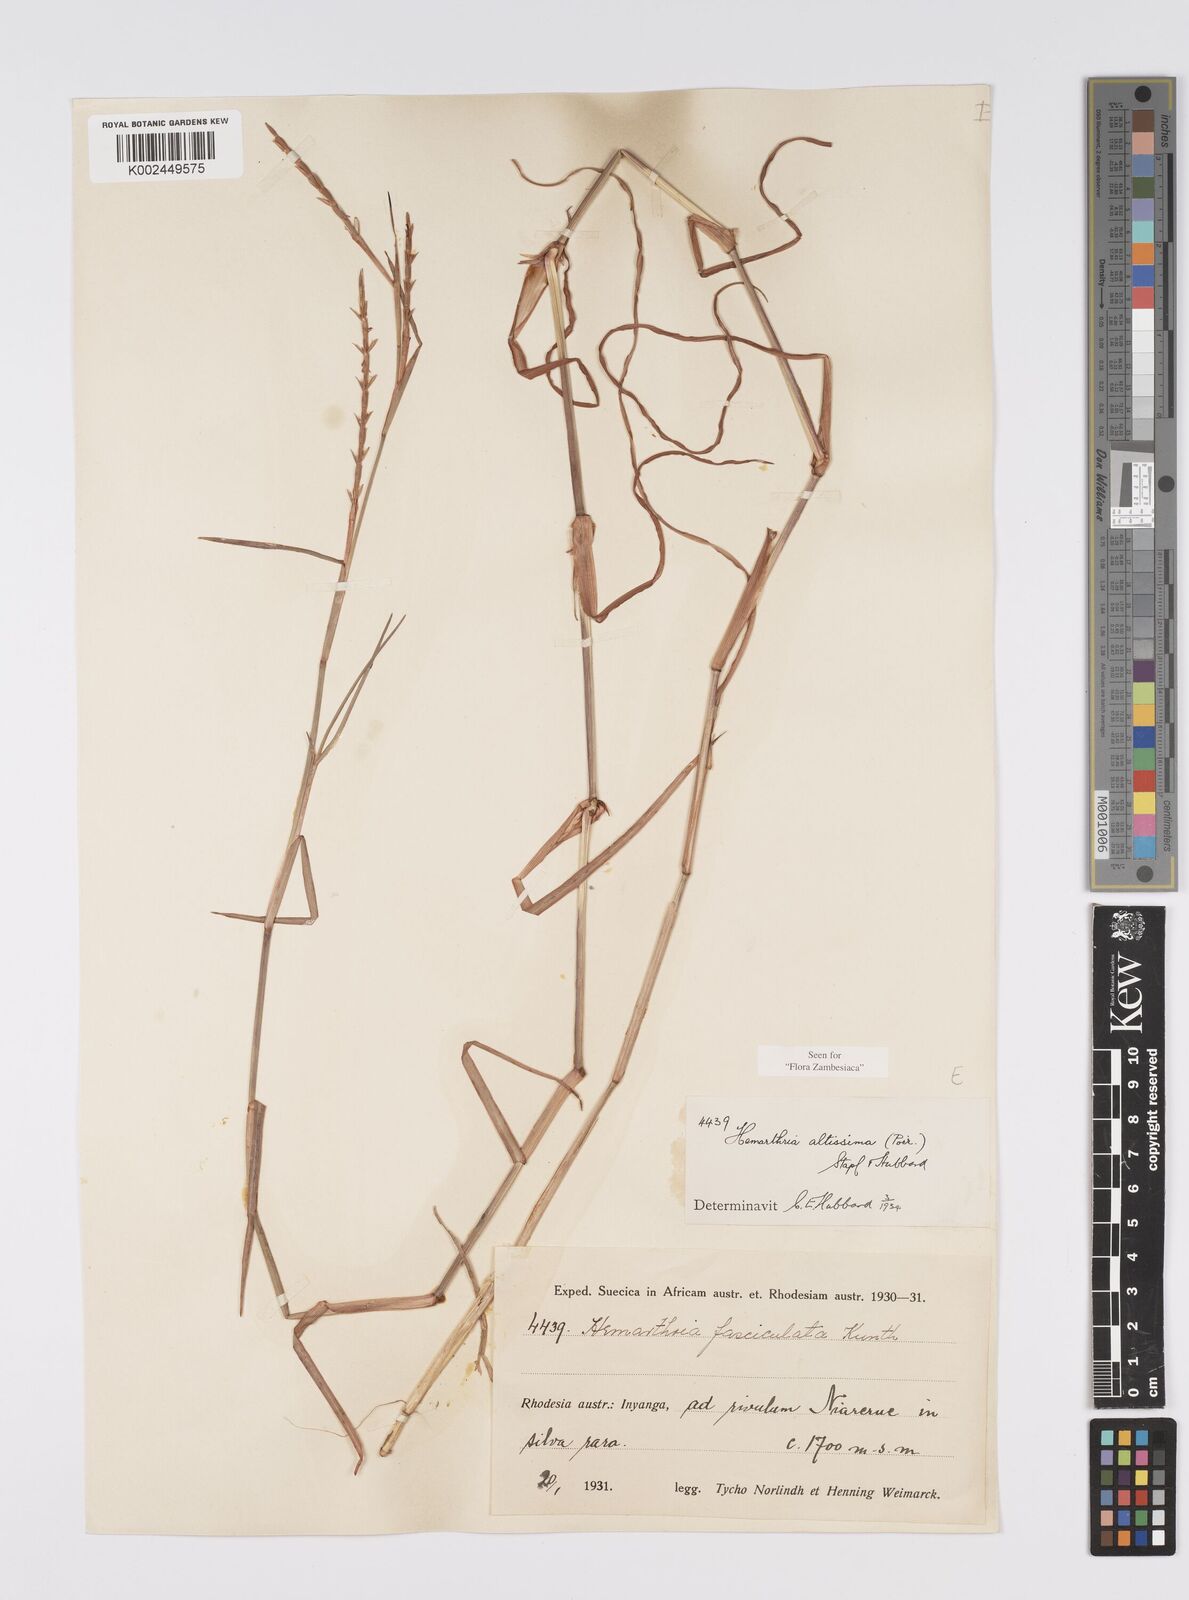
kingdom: Plantae
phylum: Tracheophyta
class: Liliopsida
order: Poales
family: Poaceae
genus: Hemarthria
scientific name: Hemarthria altissima
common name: African jointgrass
